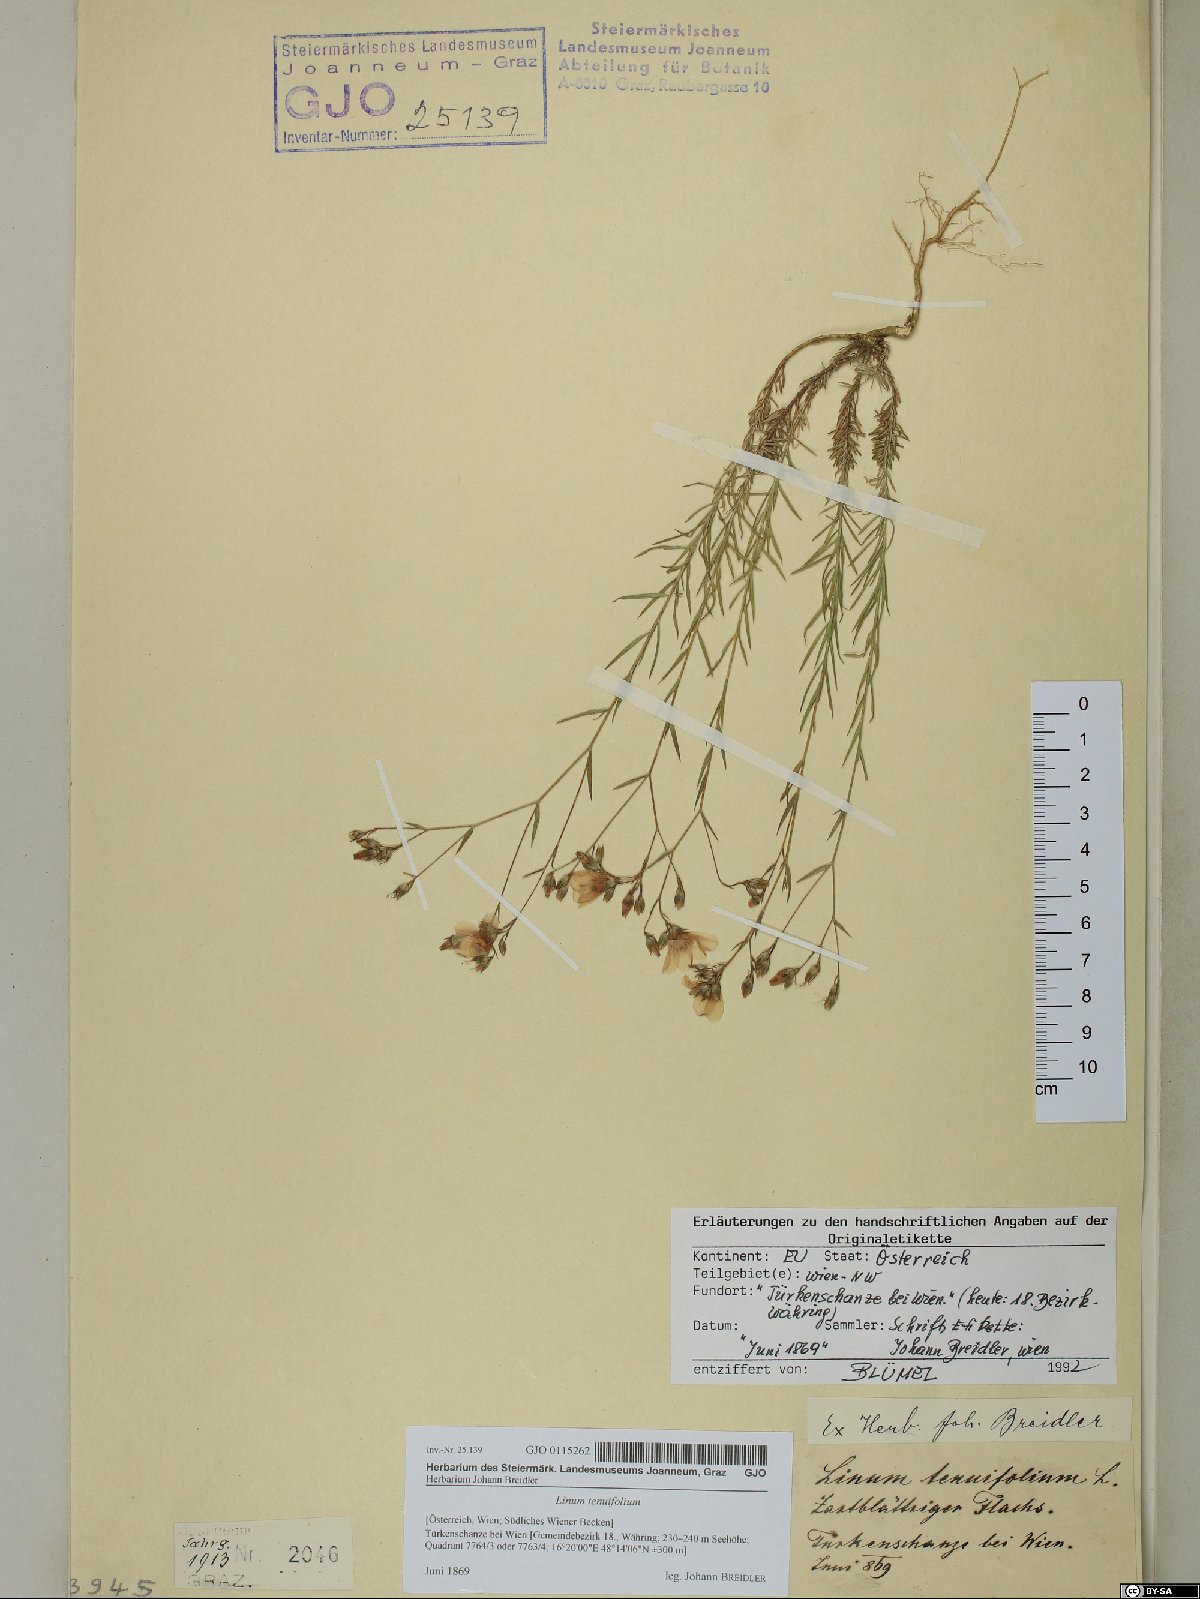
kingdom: Plantae
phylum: Tracheophyta
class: Magnoliopsida
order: Malpighiales
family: Linaceae
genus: Linum
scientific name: Linum tenuifolium
